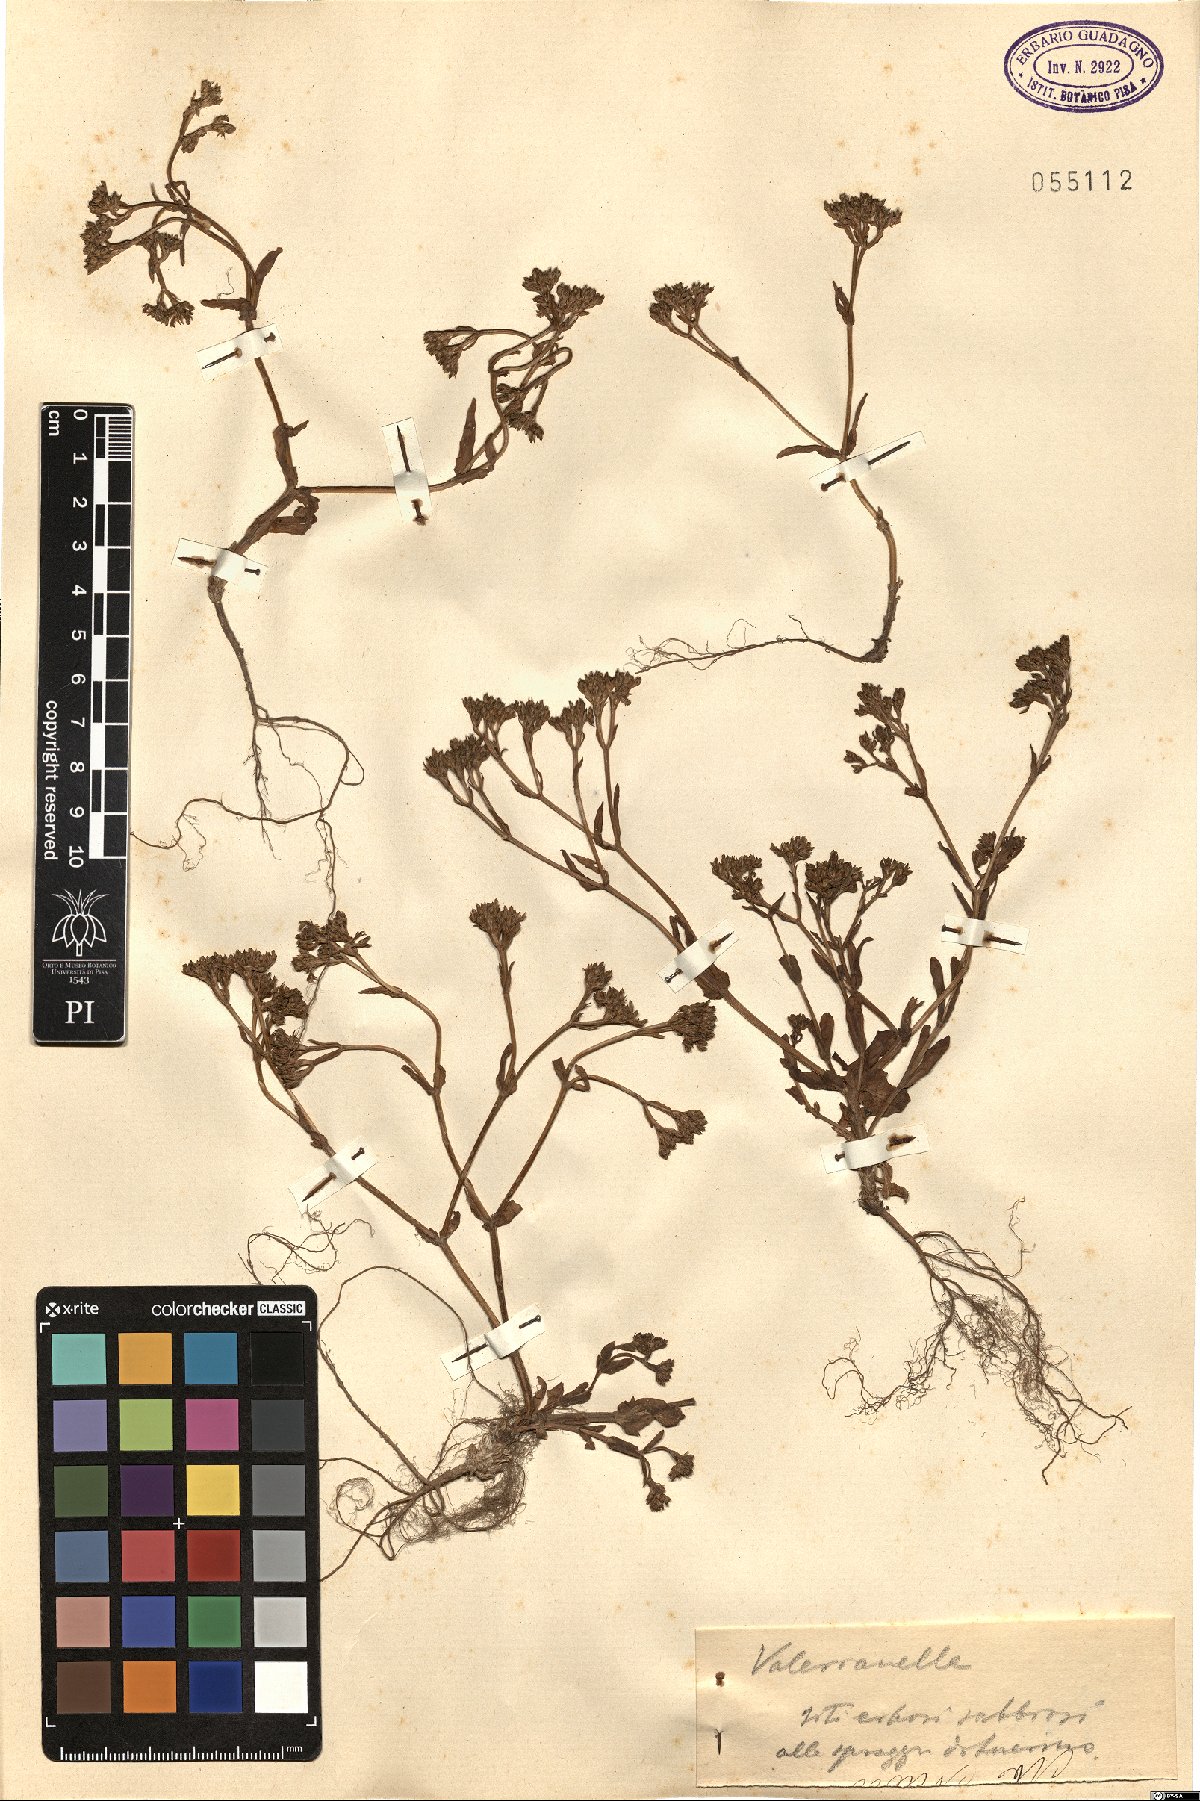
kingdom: Plantae
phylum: Tracheophyta
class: Magnoliopsida
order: Dipsacales
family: Caprifoliaceae
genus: Valerianella
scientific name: Valerianella
